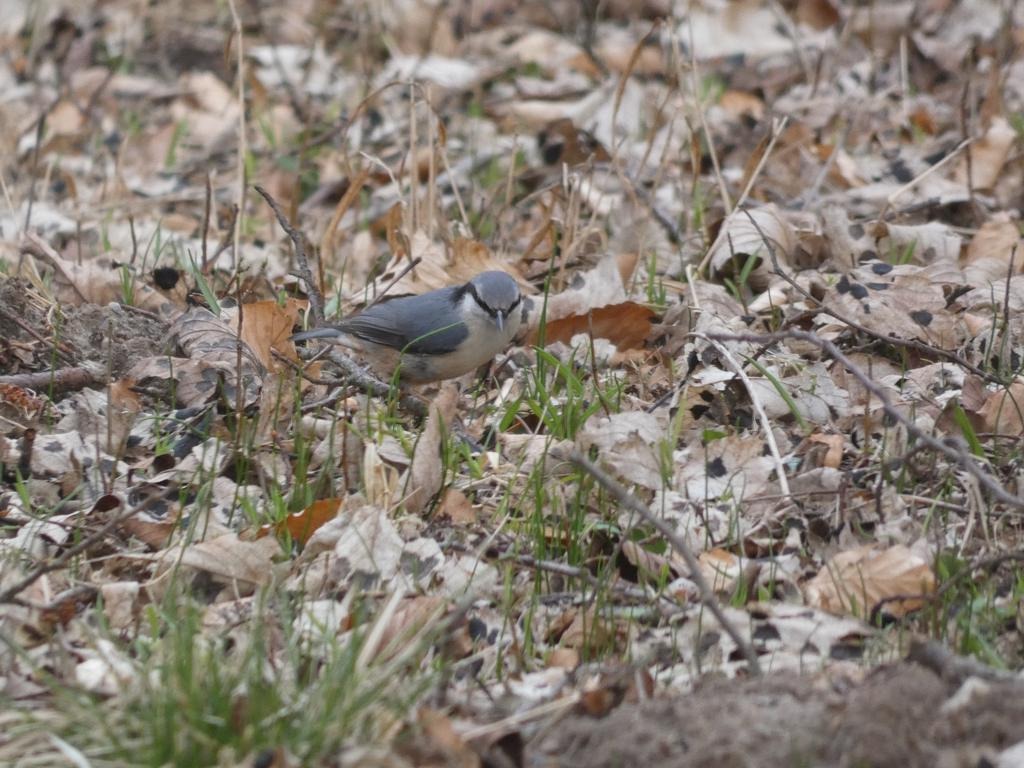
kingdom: Animalia
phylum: Chordata
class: Aves
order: Passeriformes
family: Sittidae
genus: Sitta
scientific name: Sitta europaea
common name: Spætmejse
